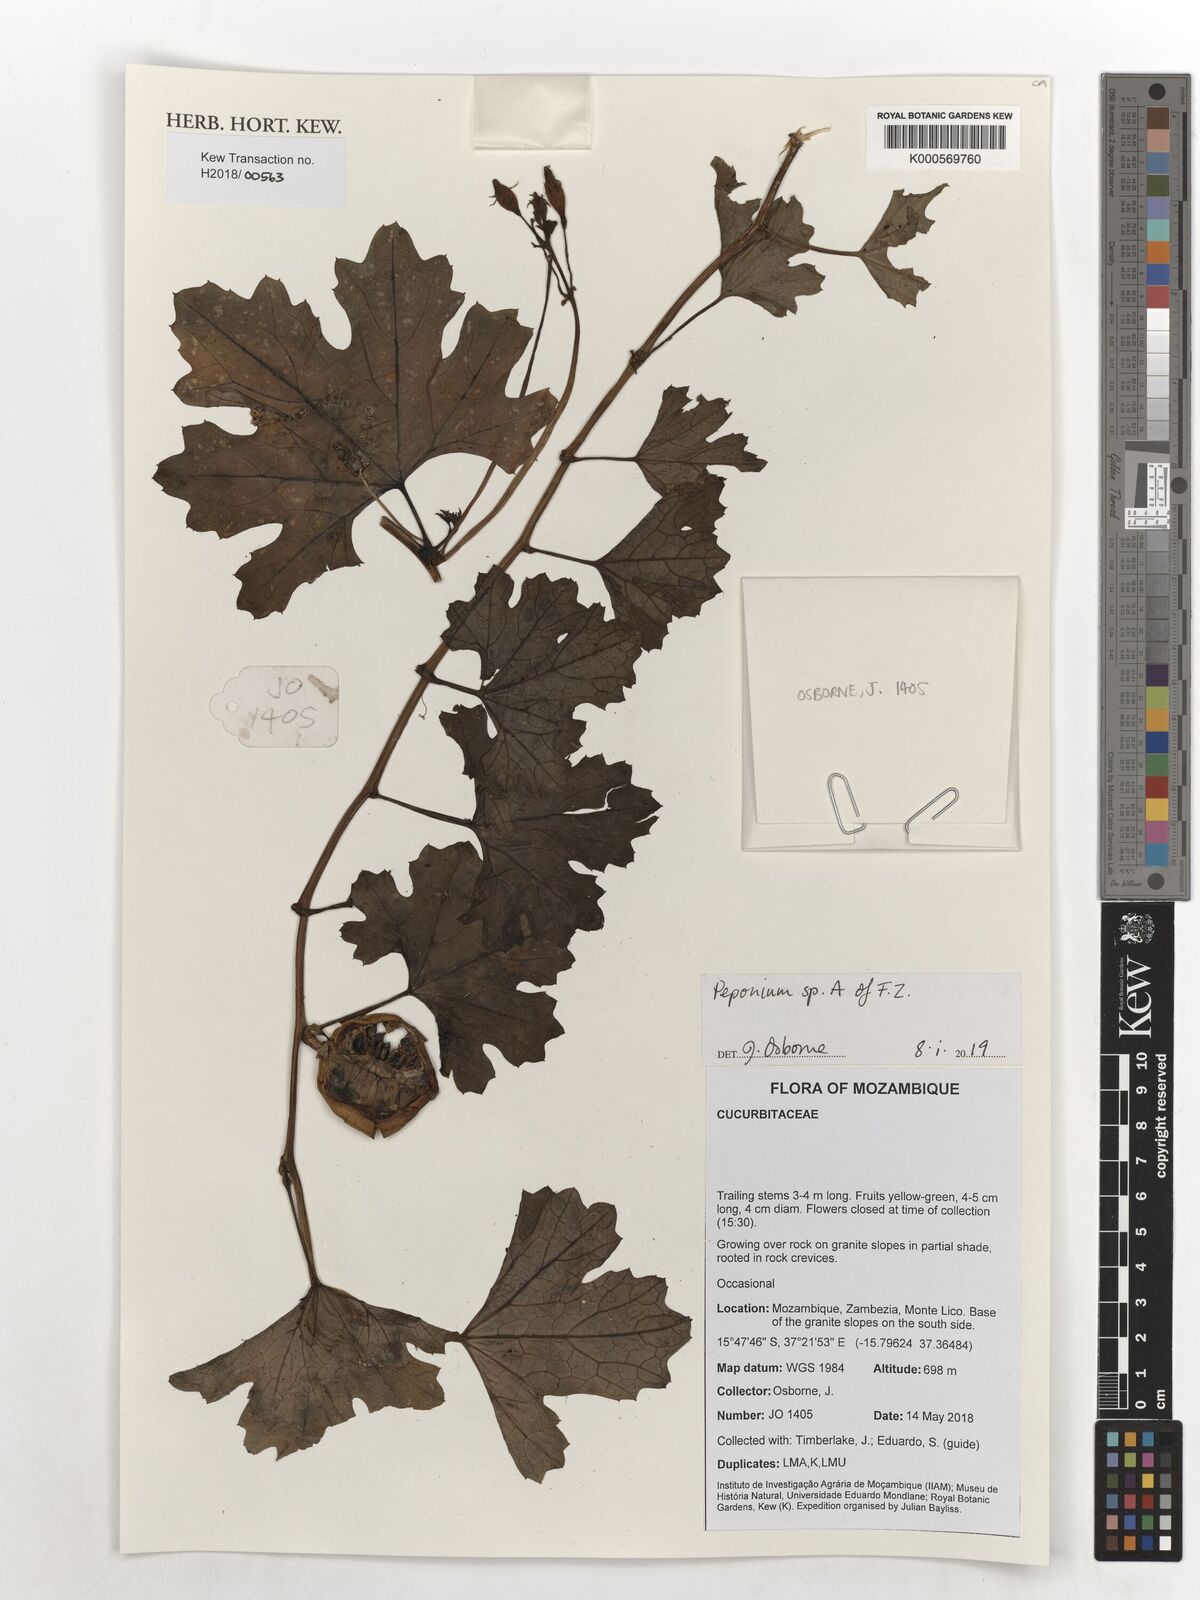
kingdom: Plantae
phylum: Tracheophyta
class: Magnoliopsida
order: Cucurbitales
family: Cucurbitaceae
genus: Peponium
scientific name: Peponium vogelii
